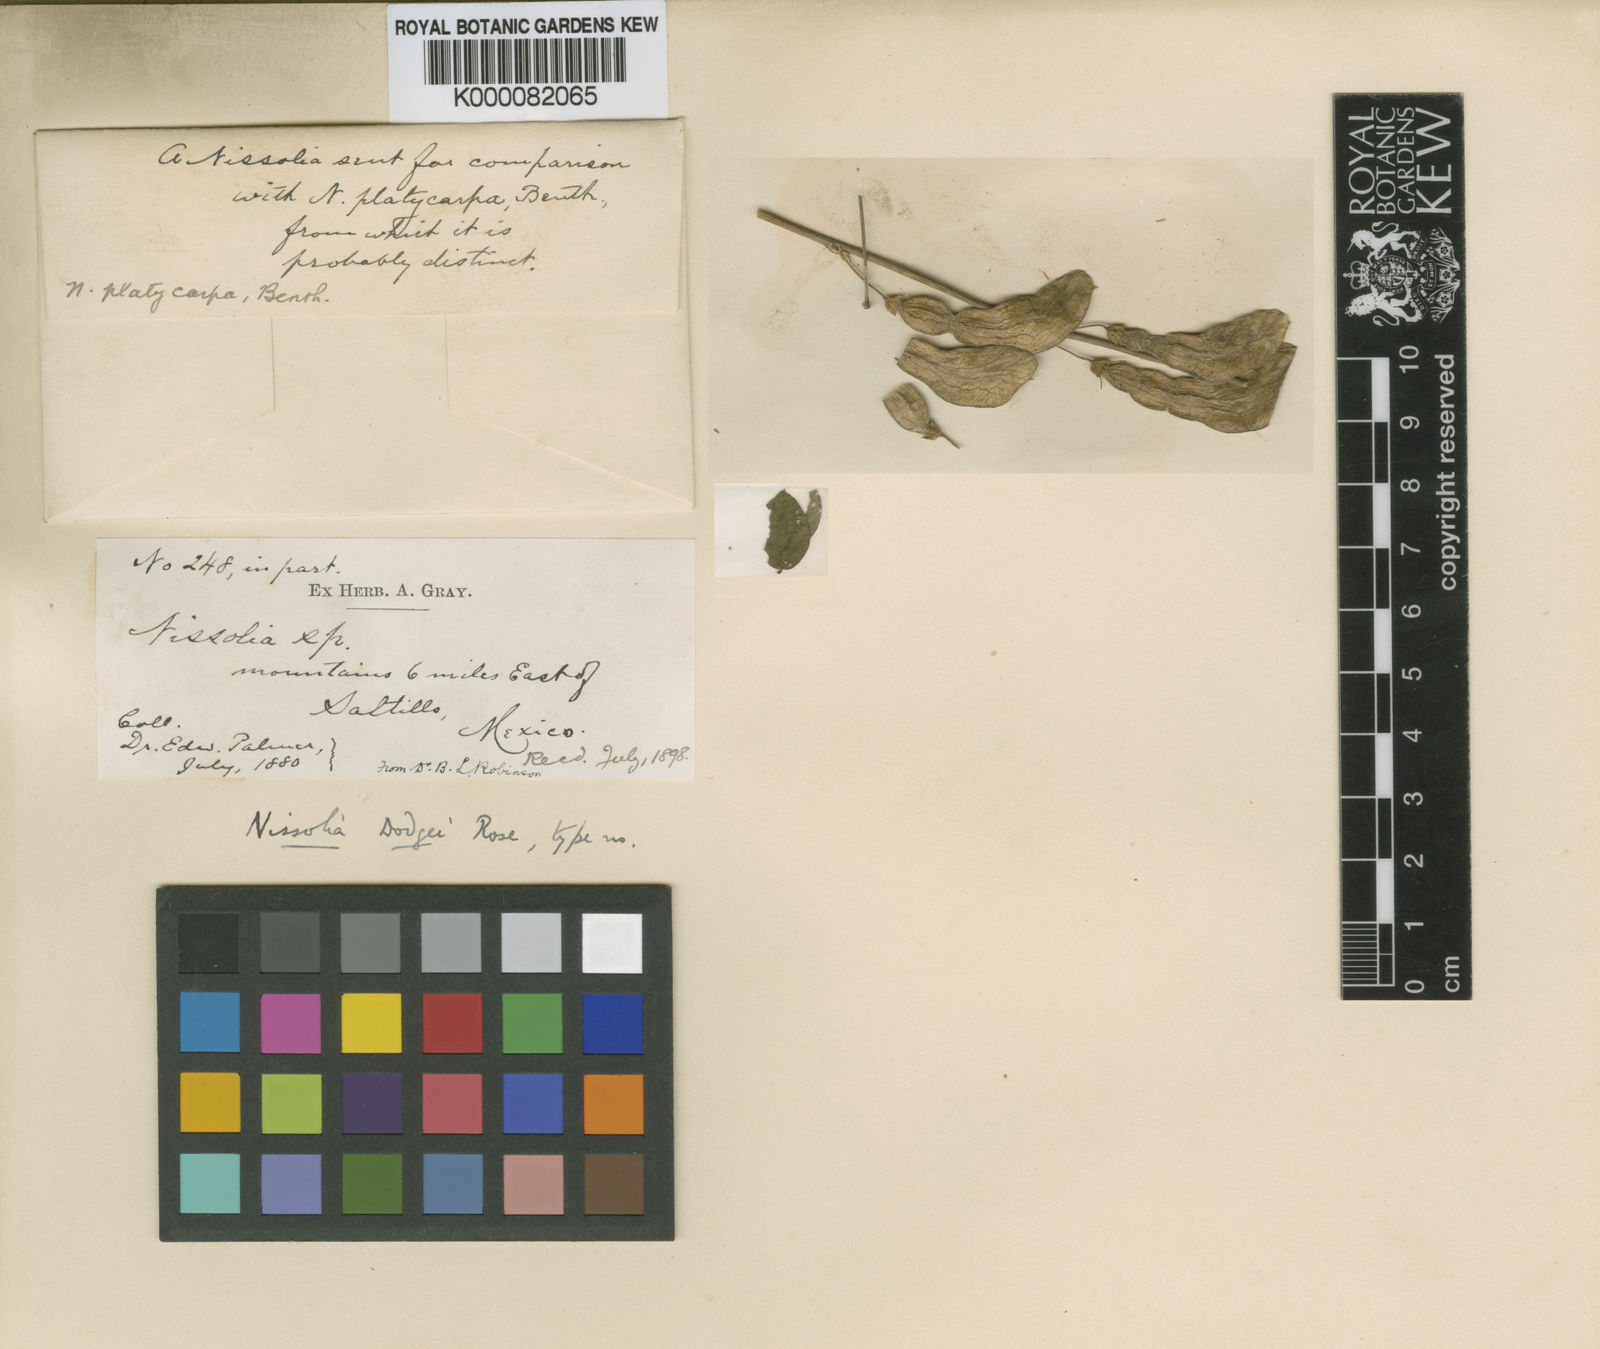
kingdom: Plantae
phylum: Tracheophyta
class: Magnoliopsida
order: Fabales
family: Fabaceae
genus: Nissolia
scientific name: Nissolia platycarpa
